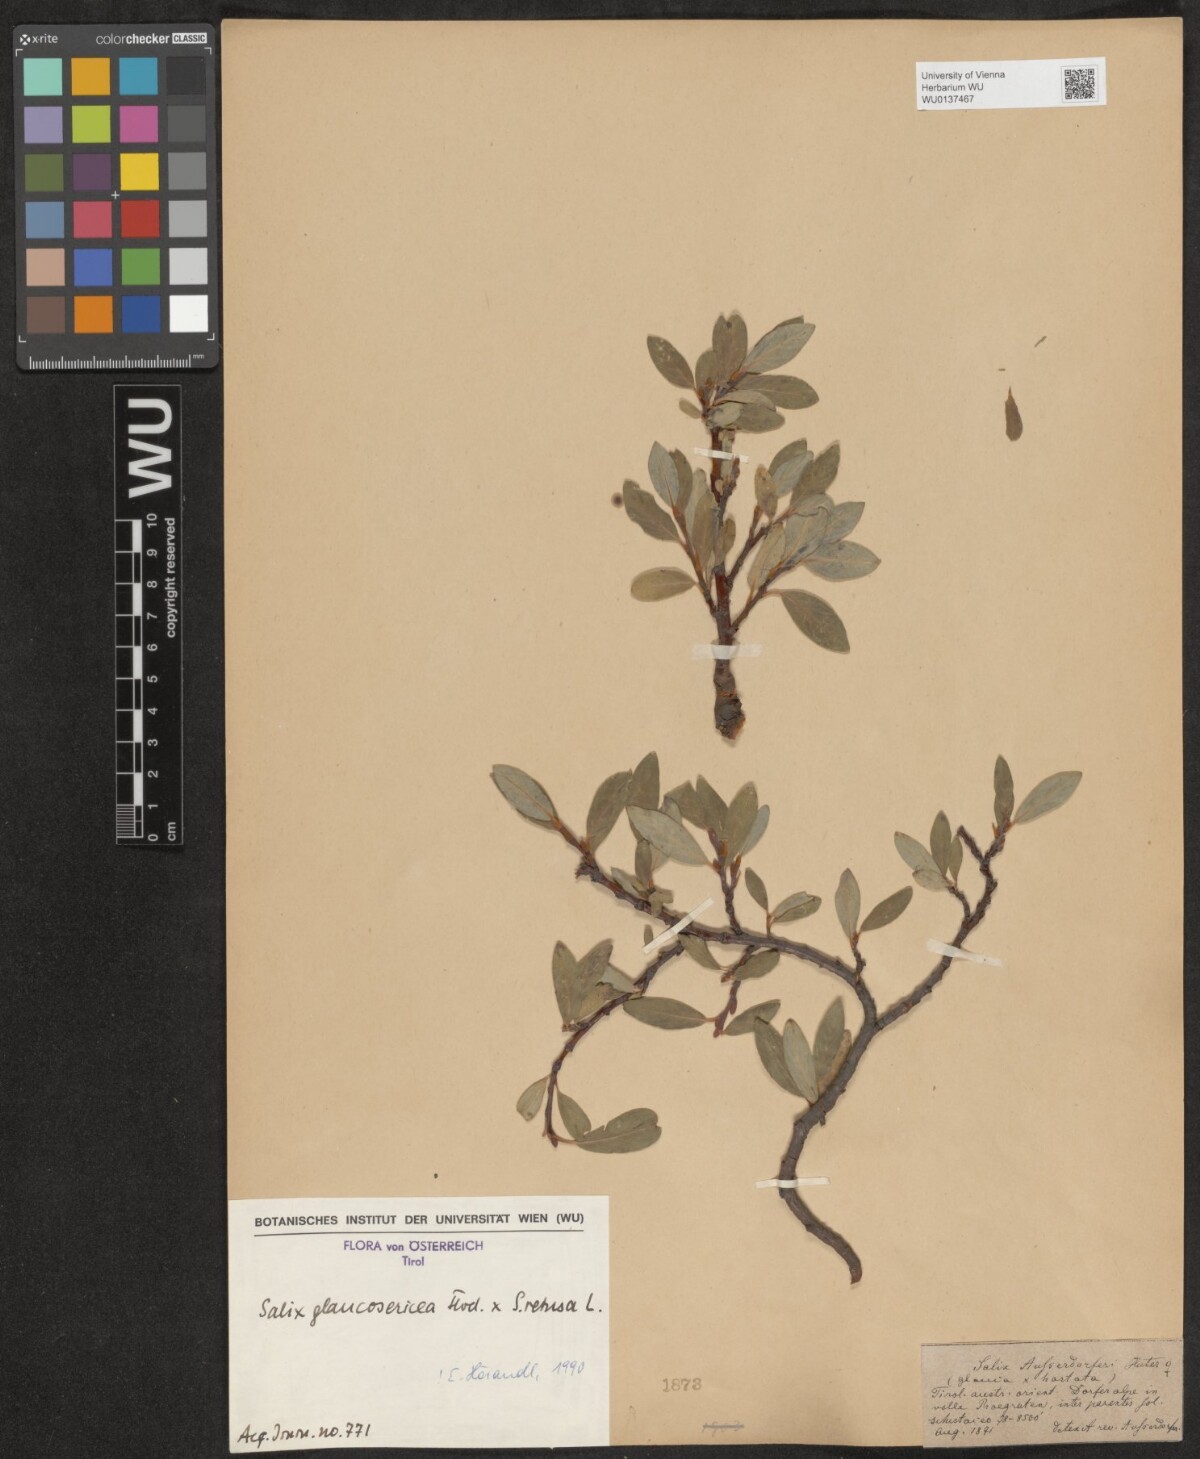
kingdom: Plantae
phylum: Tracheophyta
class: Magnoliopsida
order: Malpighiales
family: Salicaceae
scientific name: Salicaceae
